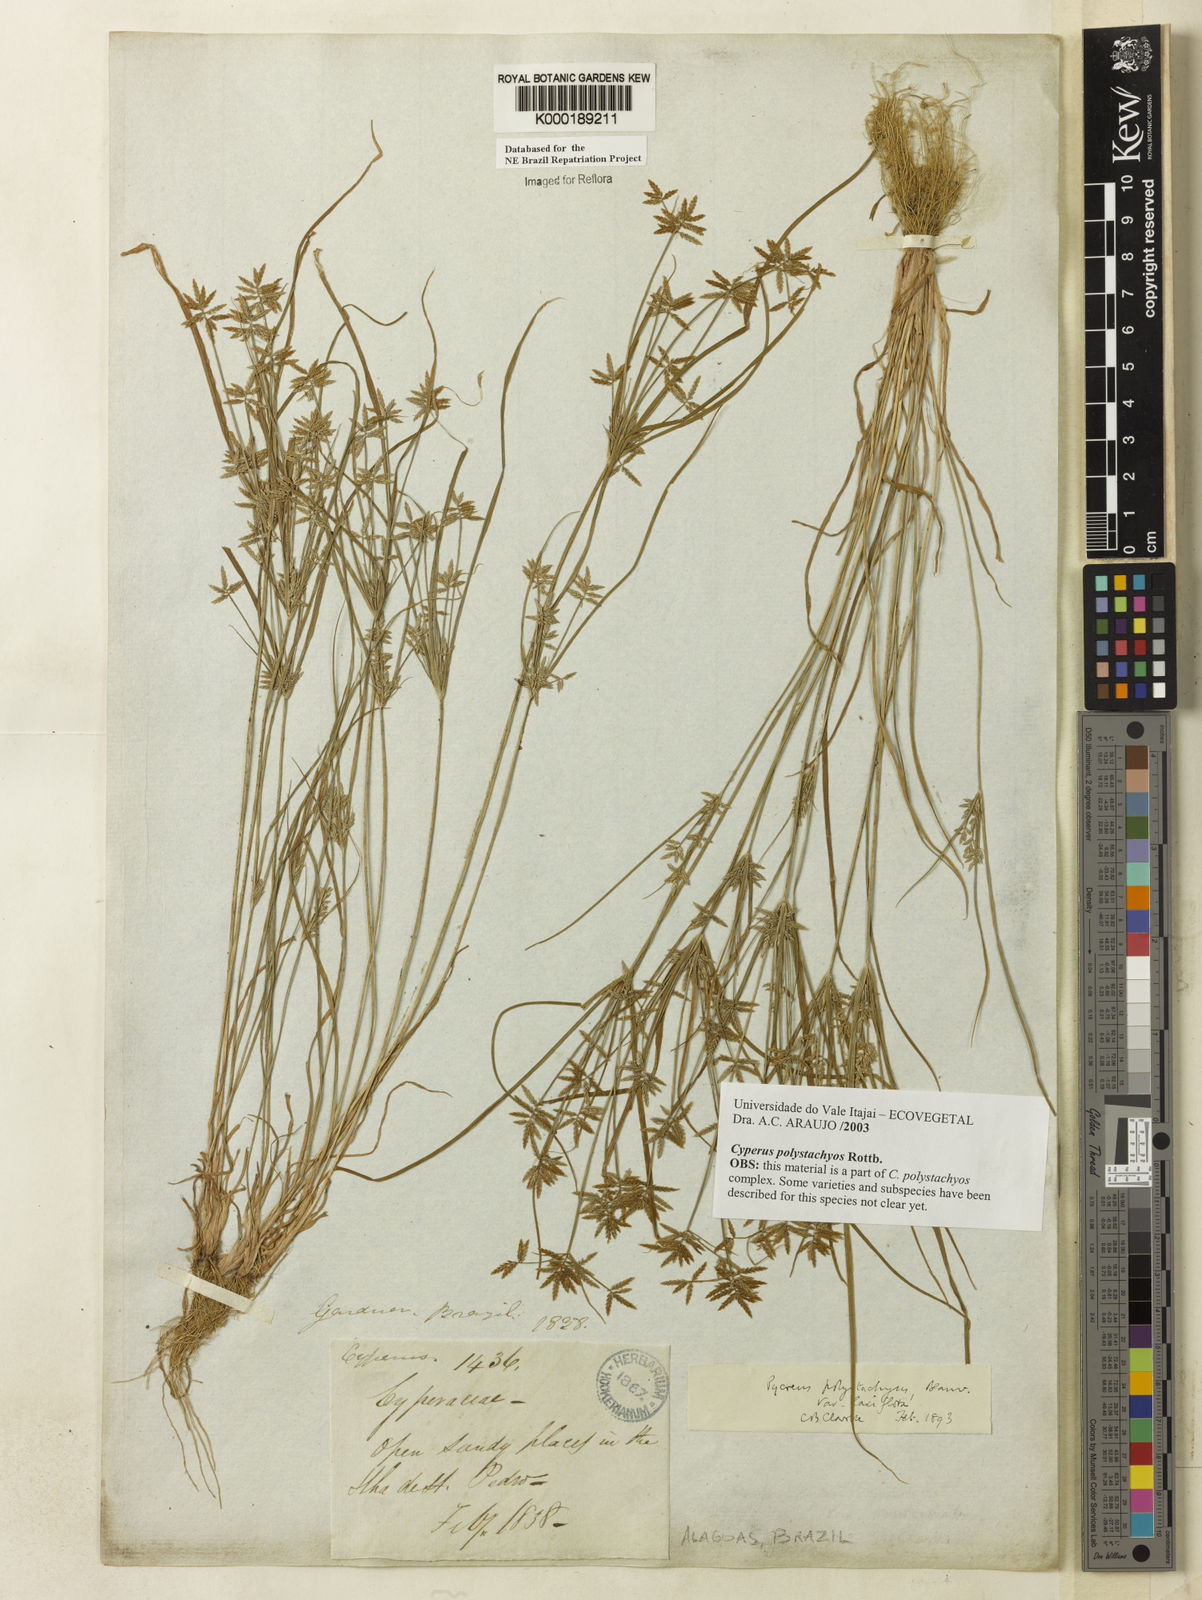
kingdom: Plantae
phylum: Tracheophyta
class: Liliopsida
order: Poales
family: Cyperaceae
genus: Cyperus
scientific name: Cyperus polystachyos
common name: Bunchy flat sedge
